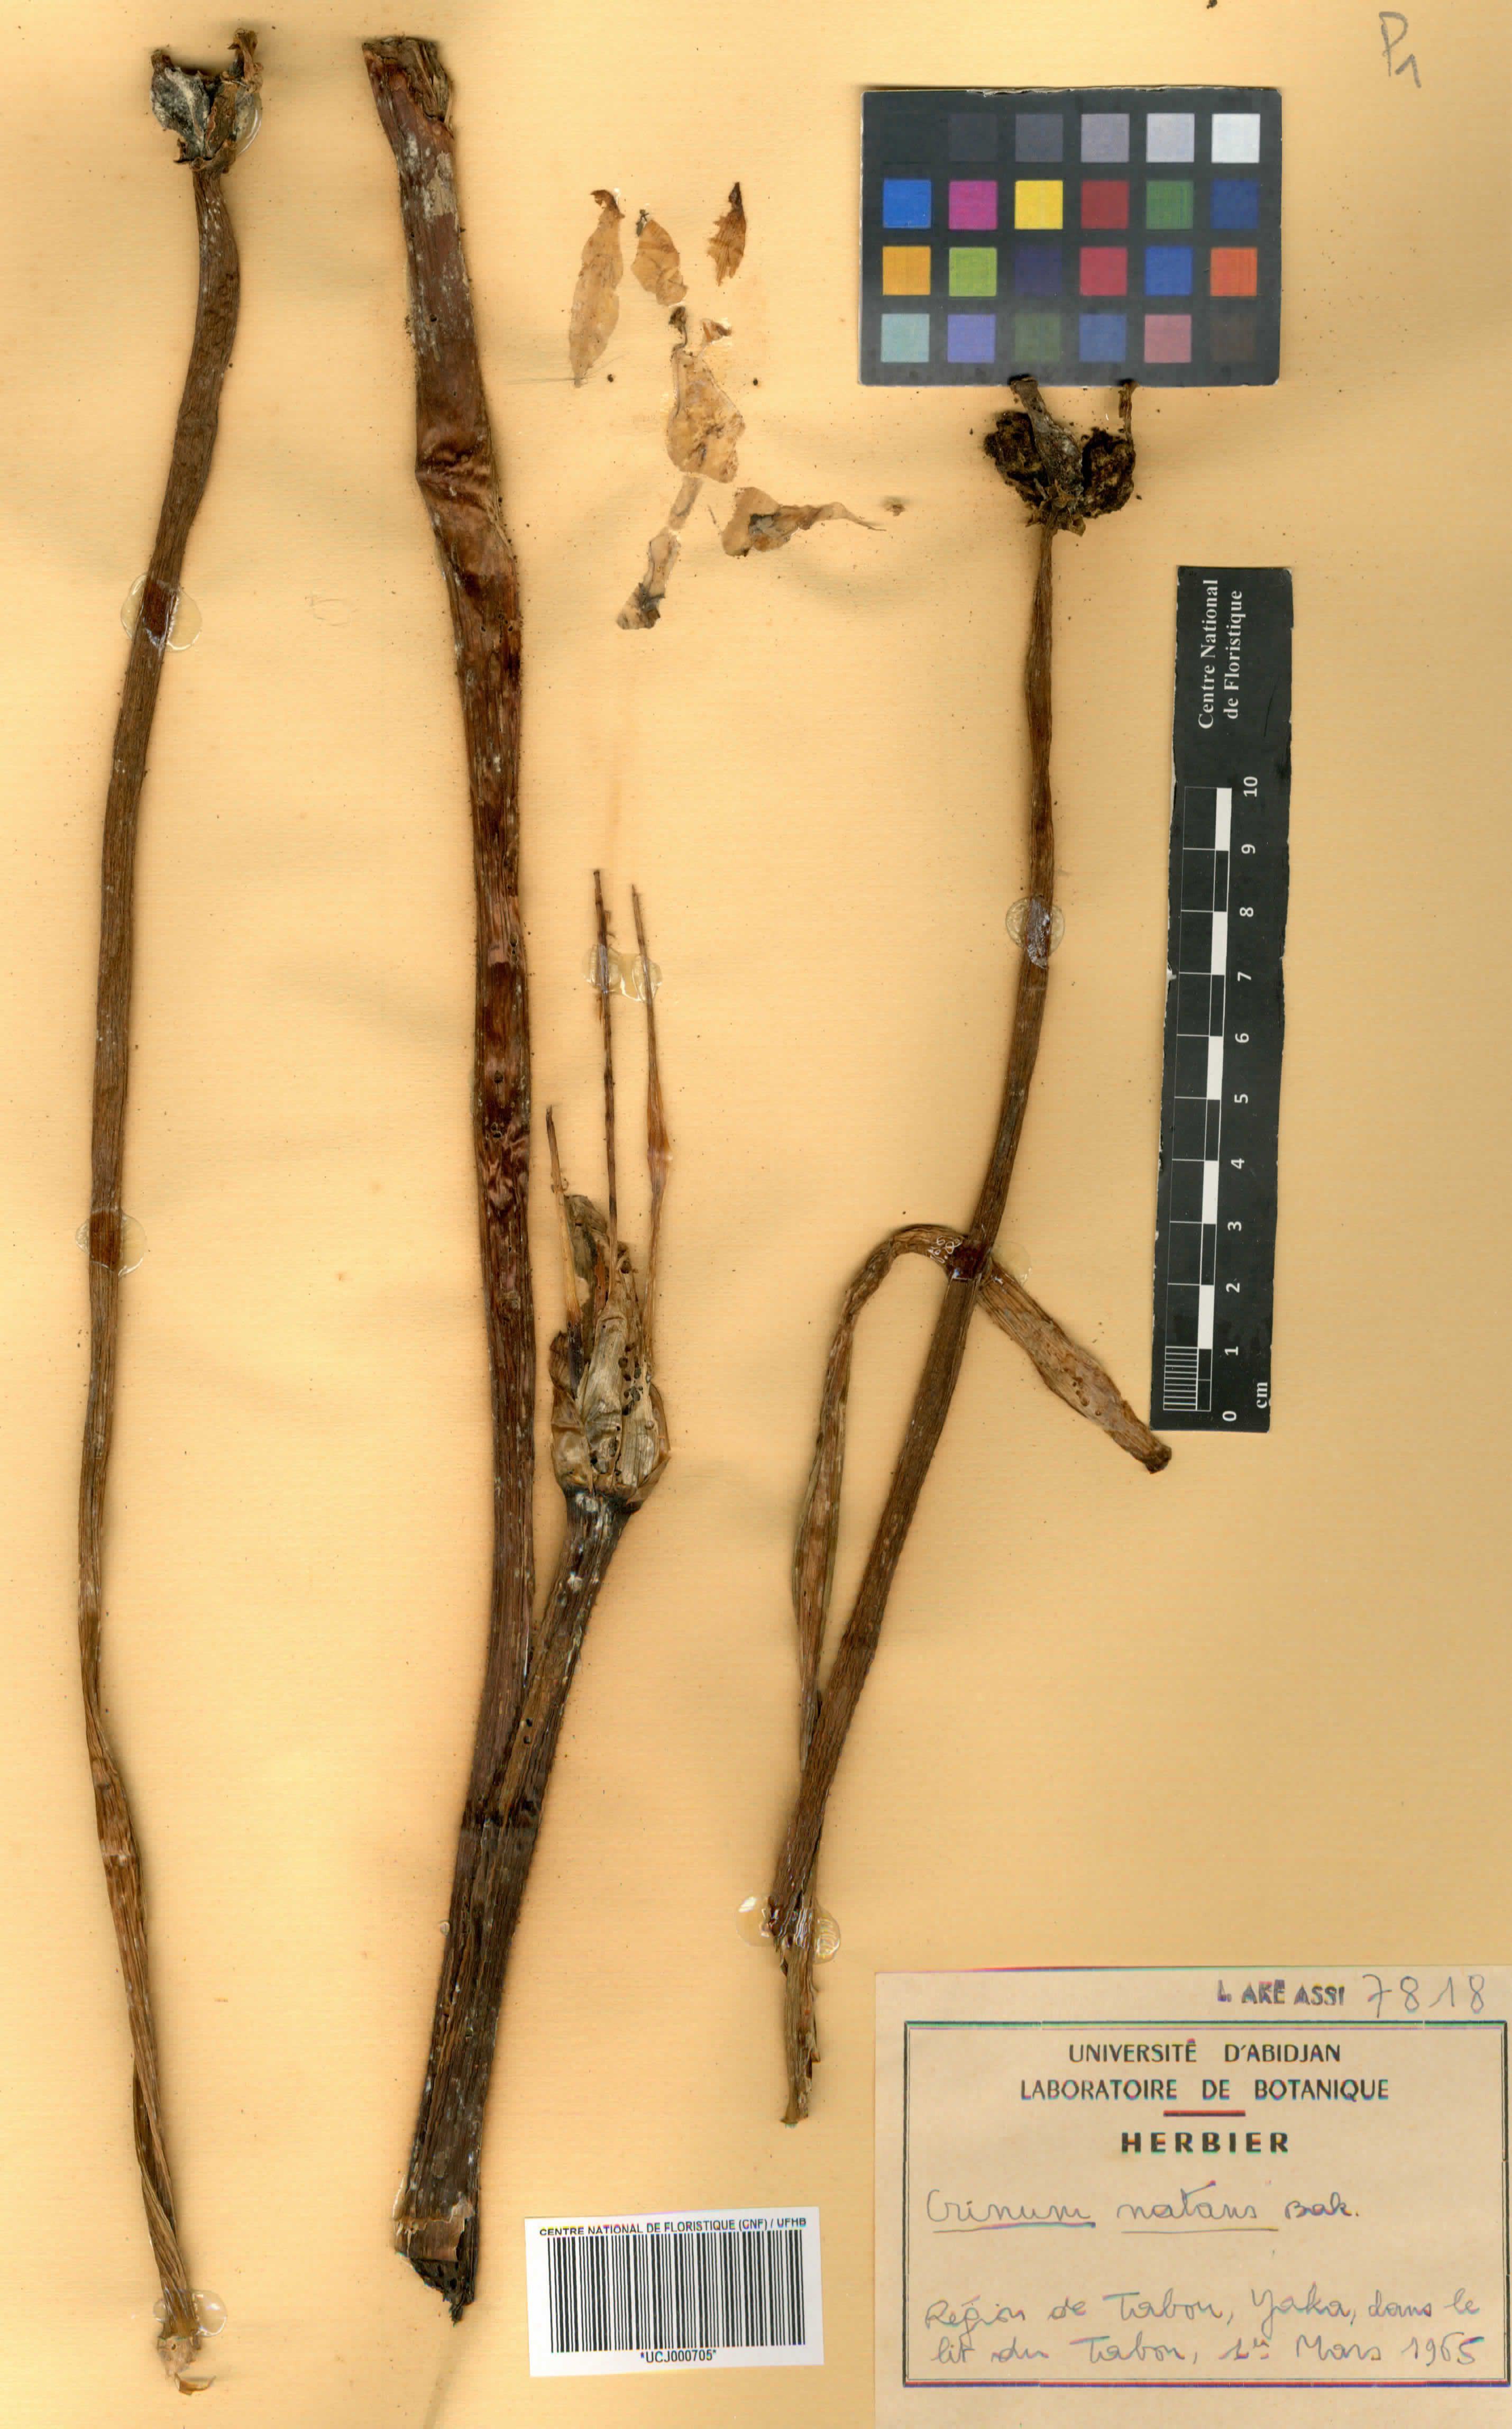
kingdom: Plantae
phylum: Tracheophyta
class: Liliopsida
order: Asparagales
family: Amaryllidaceae
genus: Crinum
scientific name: Crinum natans
